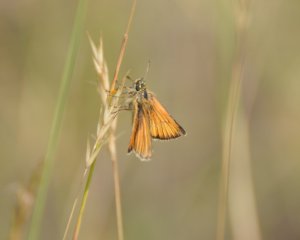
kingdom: Animalia
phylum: Arthropoda
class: Insecta
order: Lepidoptera
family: Hesperiidae
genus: Thymelicus
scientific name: Thymelicus lineola
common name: European Skipper
